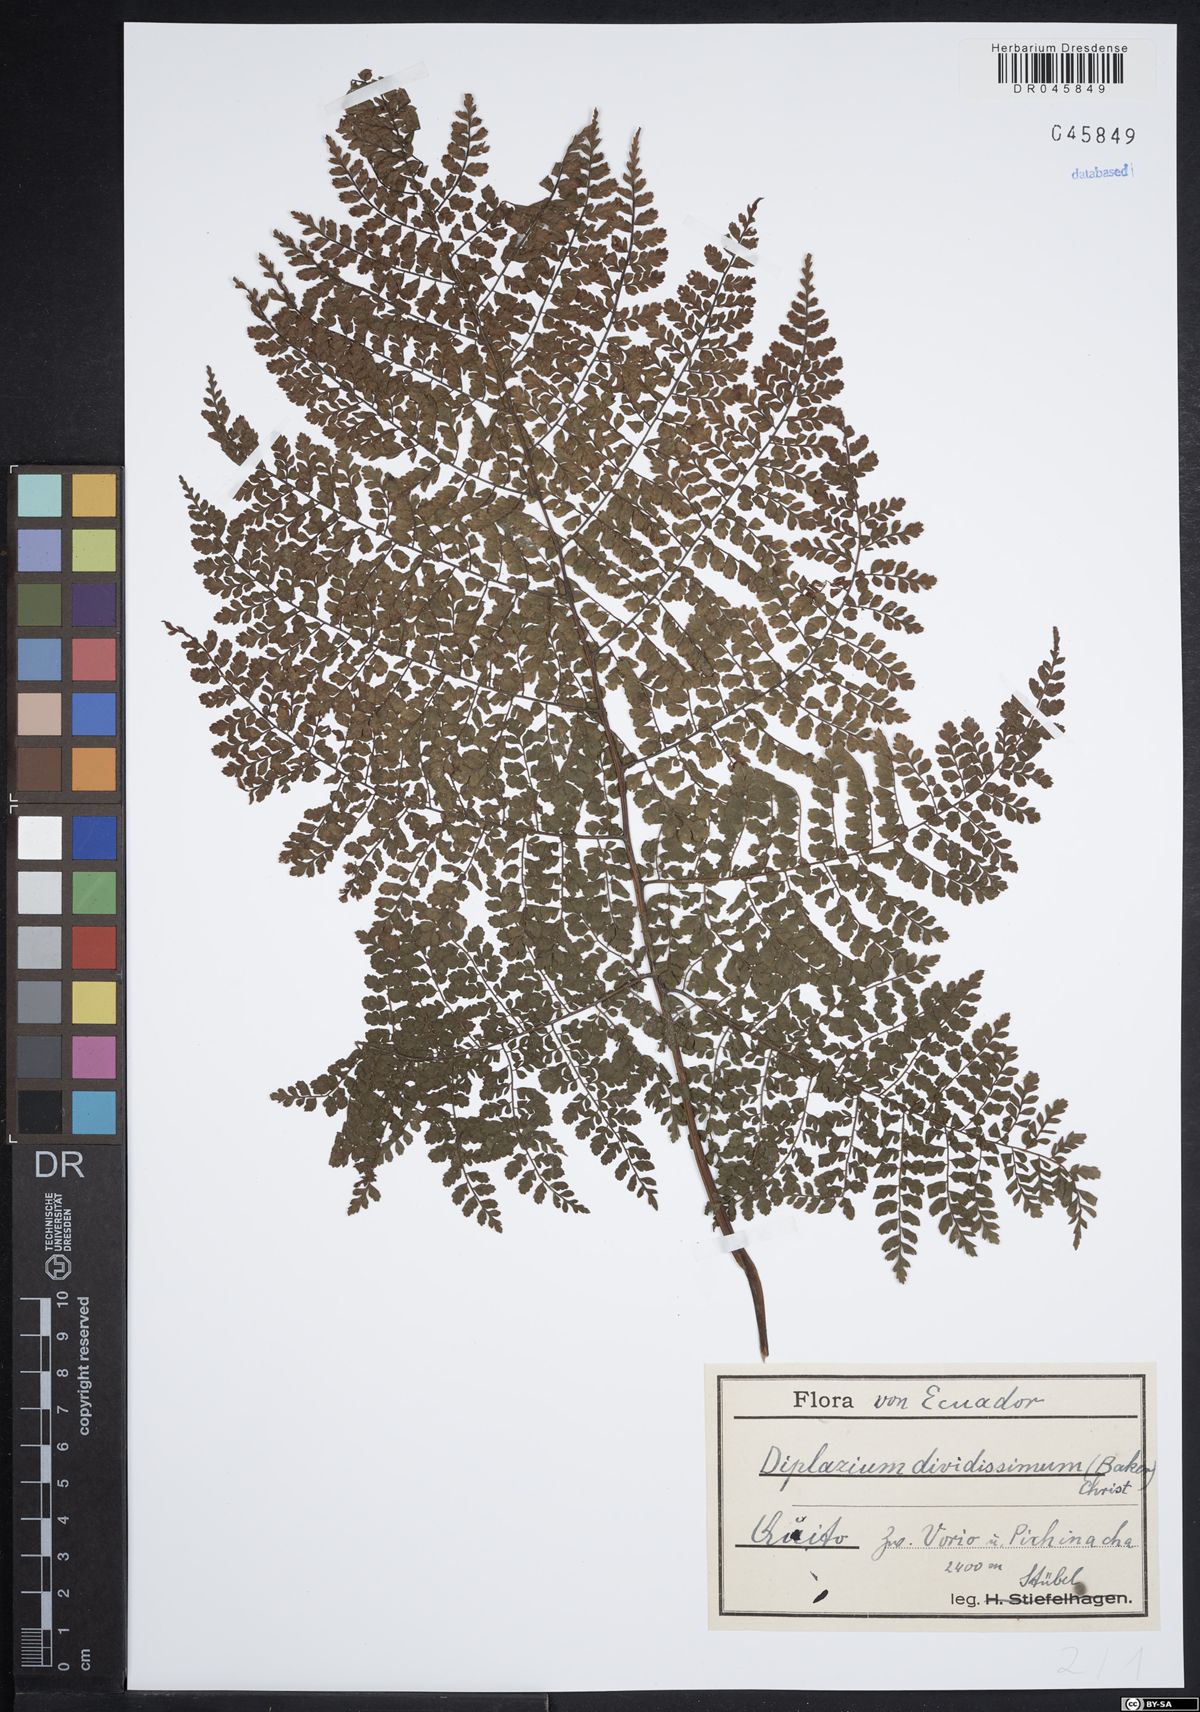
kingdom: Plantae
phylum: Tracheophyta
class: Polypodiopsida
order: Polypodiales
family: Athyriaceae
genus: Diplazium
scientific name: Diplazium divisissimum
